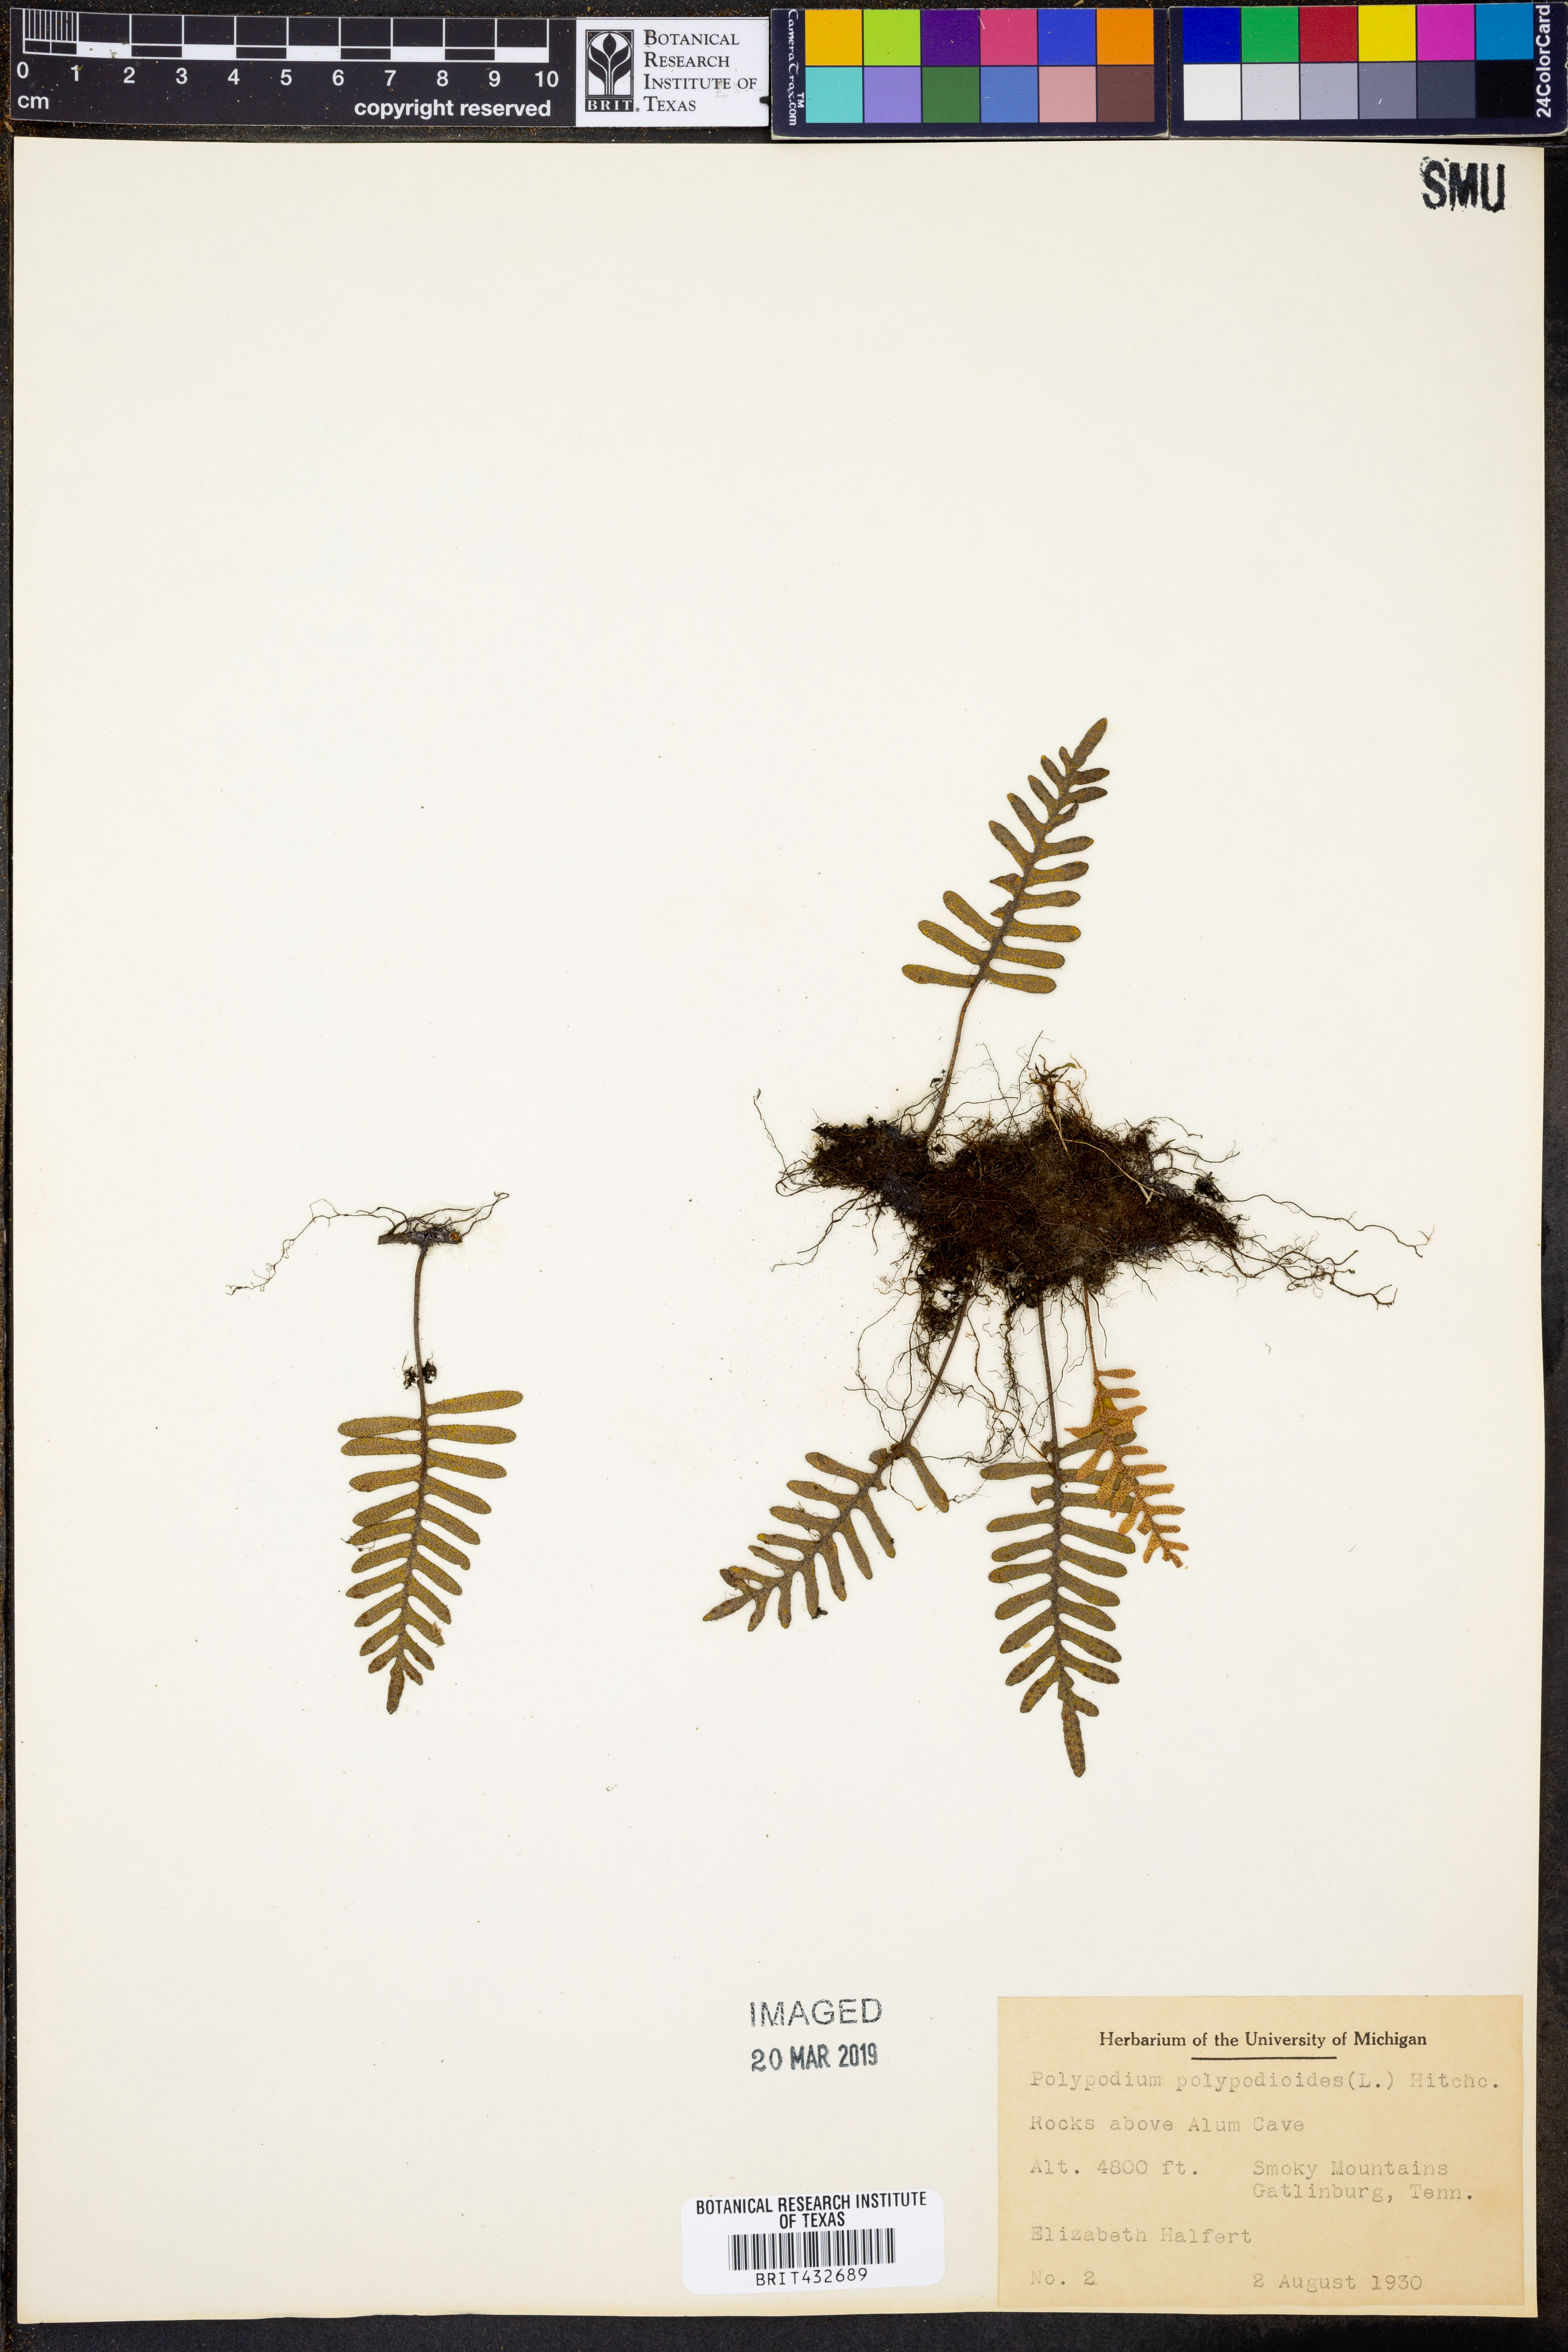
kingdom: Plantae
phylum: Tracheophyta
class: Polypodiopsida
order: Polypodiales
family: Polypodiaceae
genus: Pleopeltis
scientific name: Pleopeltis polypodioides
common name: Resurrection fern
